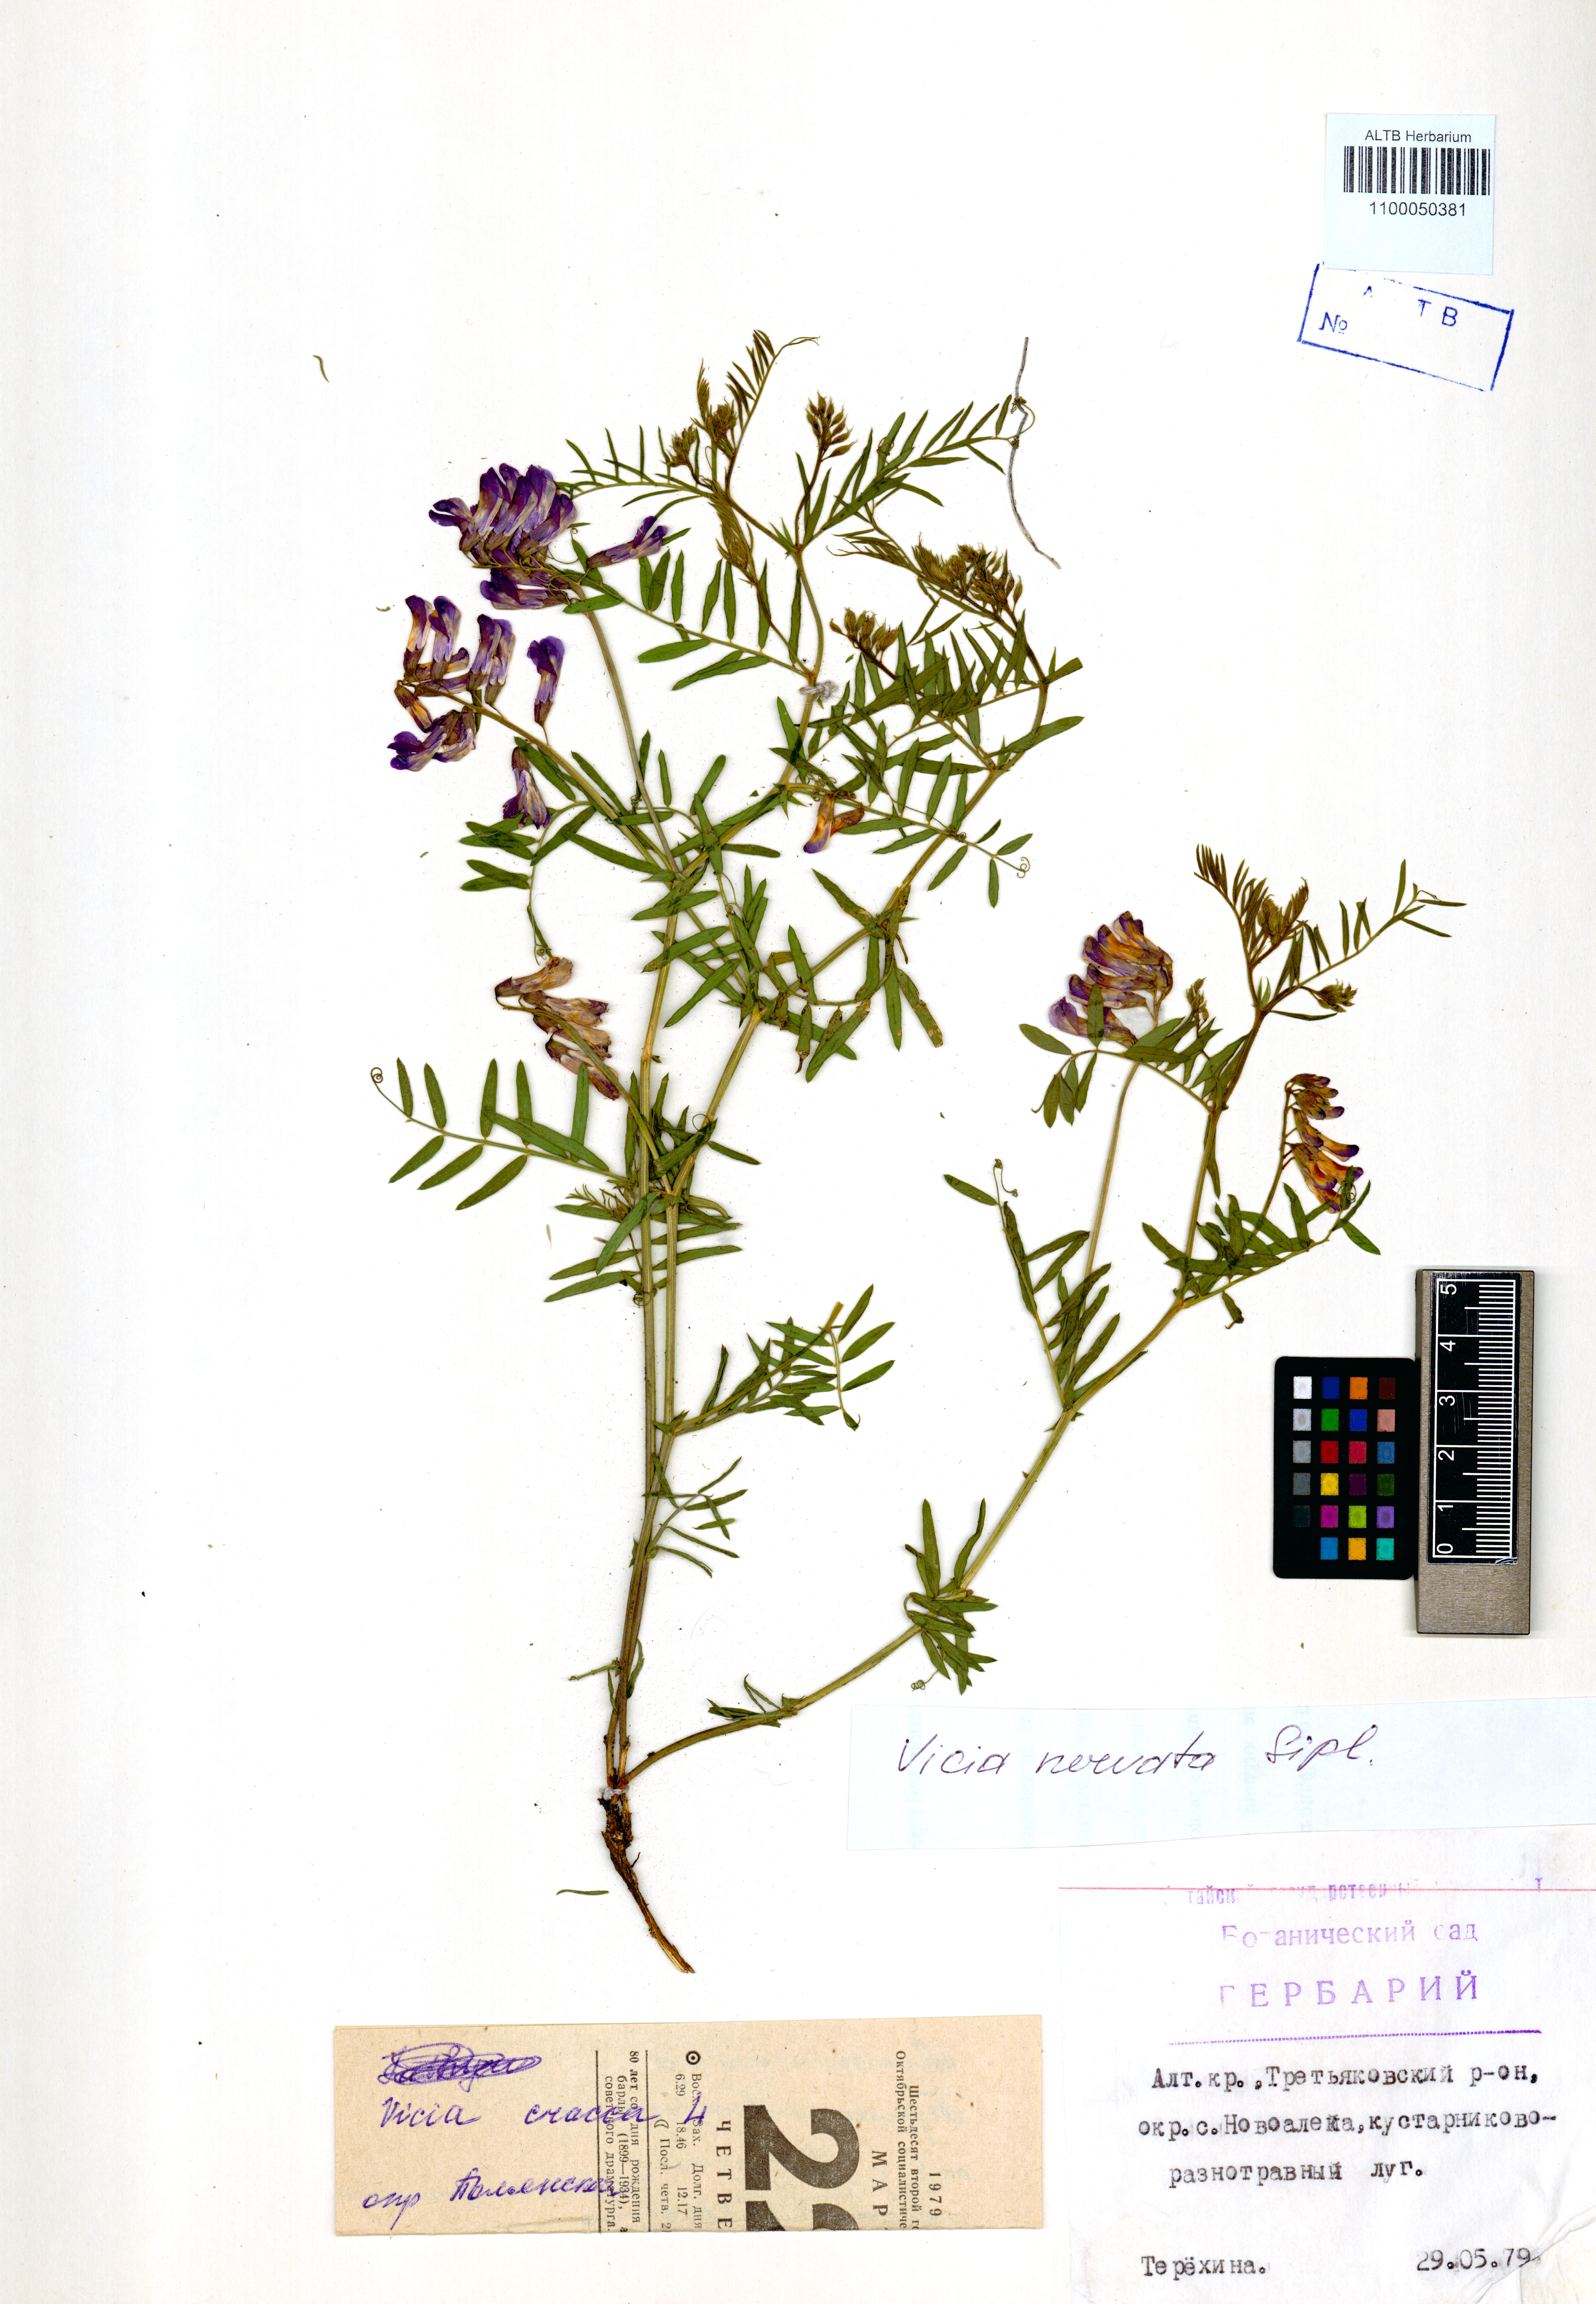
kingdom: Plantae
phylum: Tracheophyta
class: Magnoliopsida
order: Fabales
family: Fabaceae
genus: Vicia
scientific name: Vicia multicaulis
